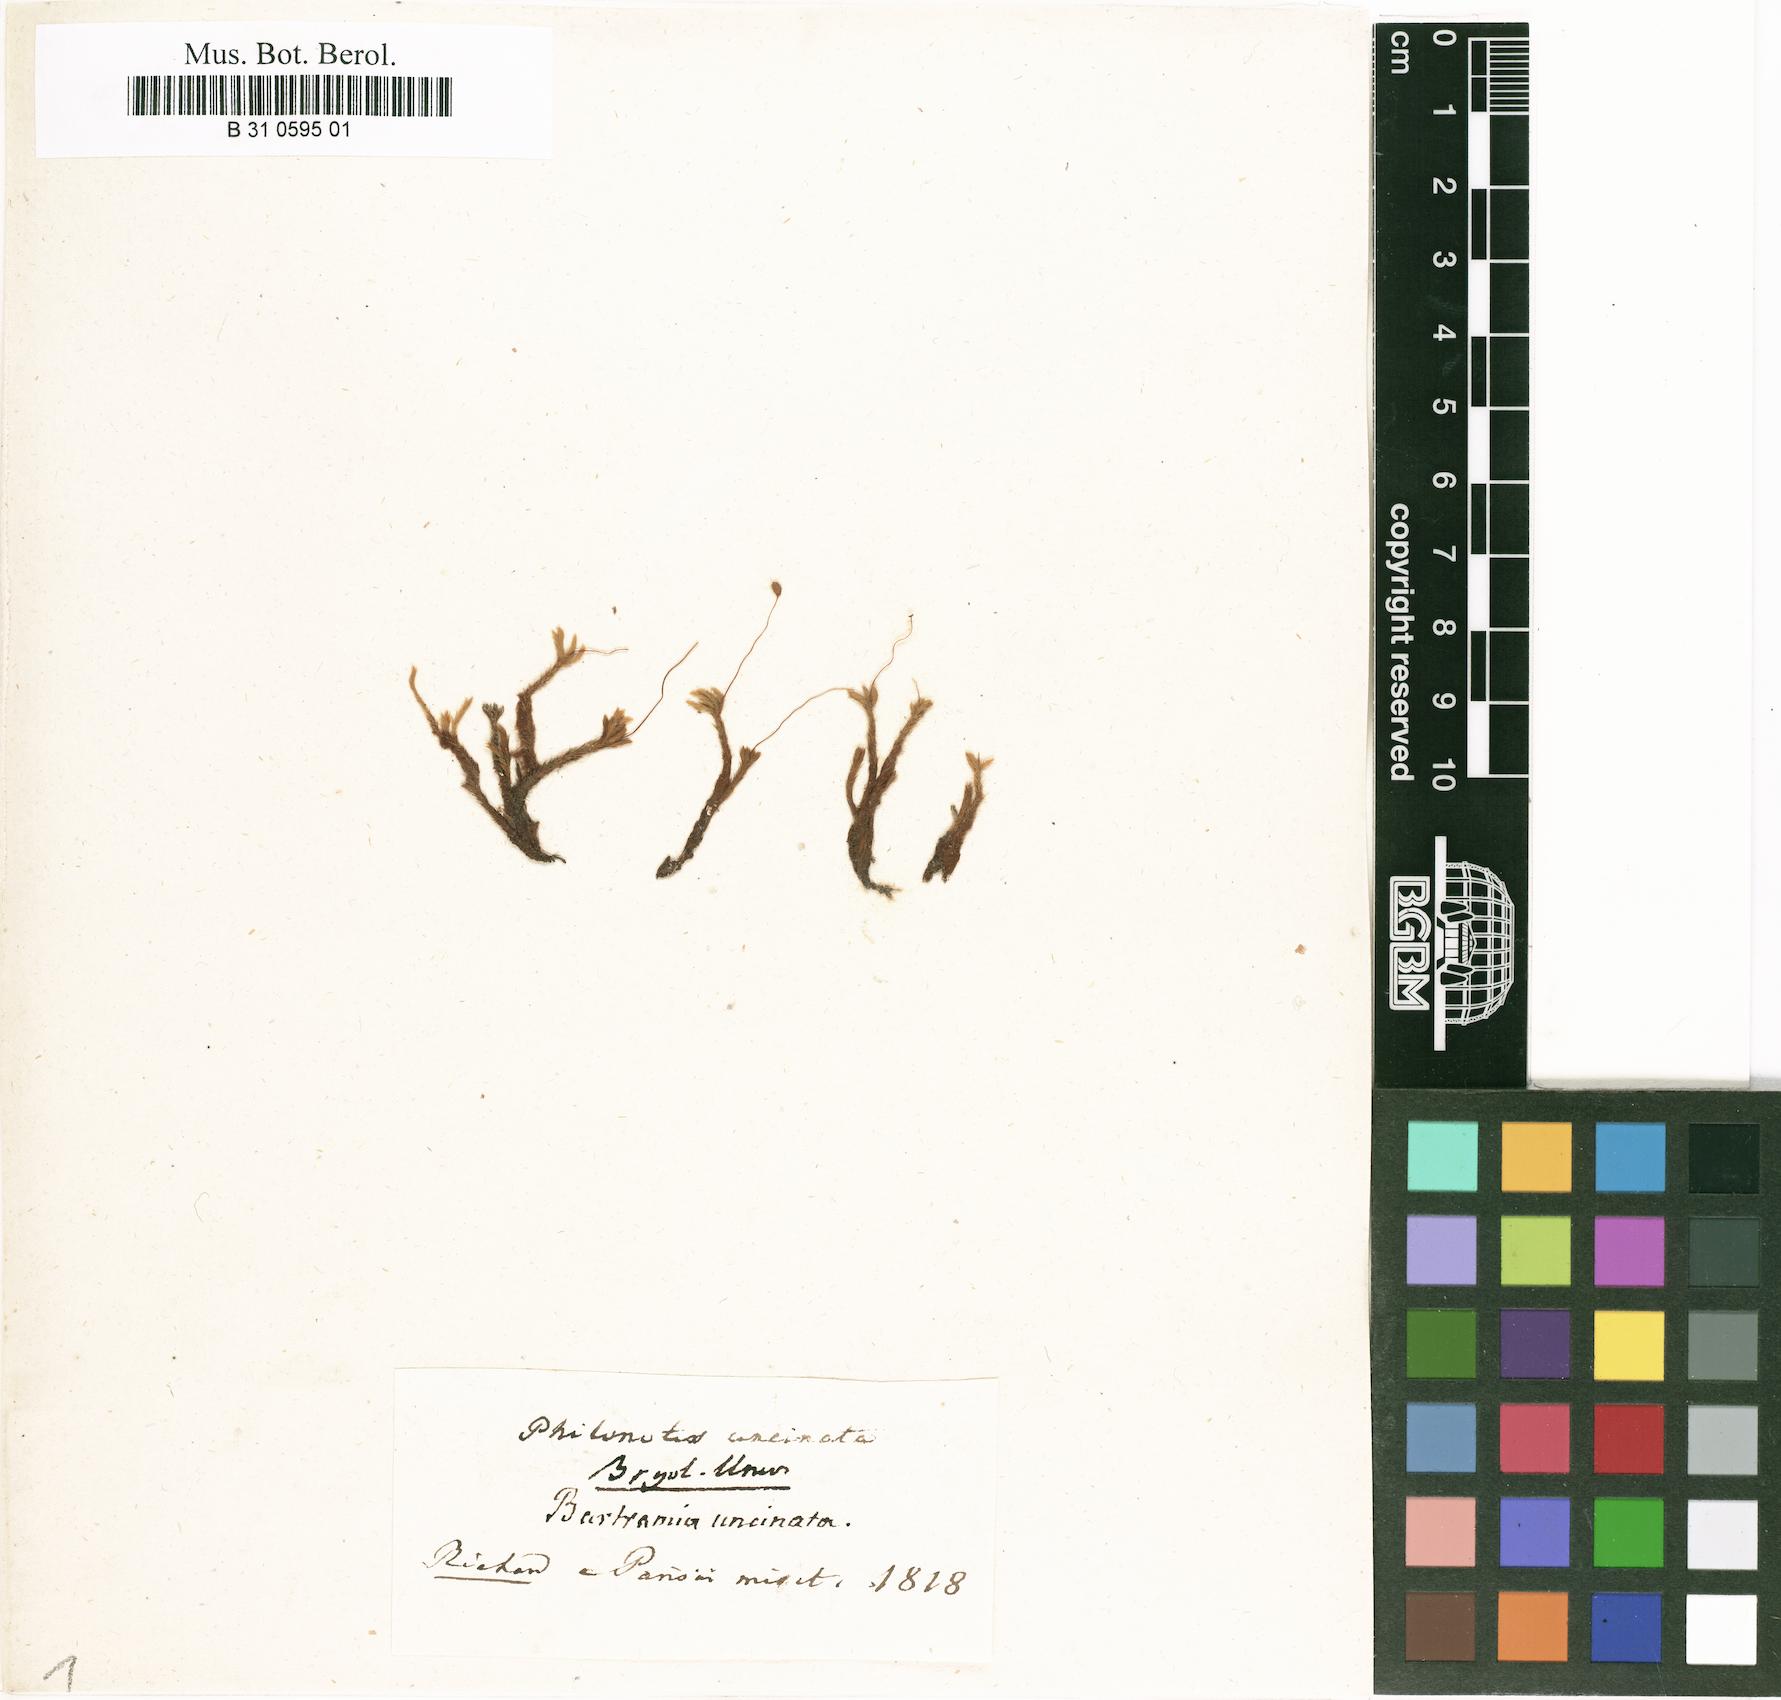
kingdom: Plantae
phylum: Bryophyta
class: Bryopsida
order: Bartramiales
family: Bartramiaceae
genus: Philonotis
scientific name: Philonotis uncinata
